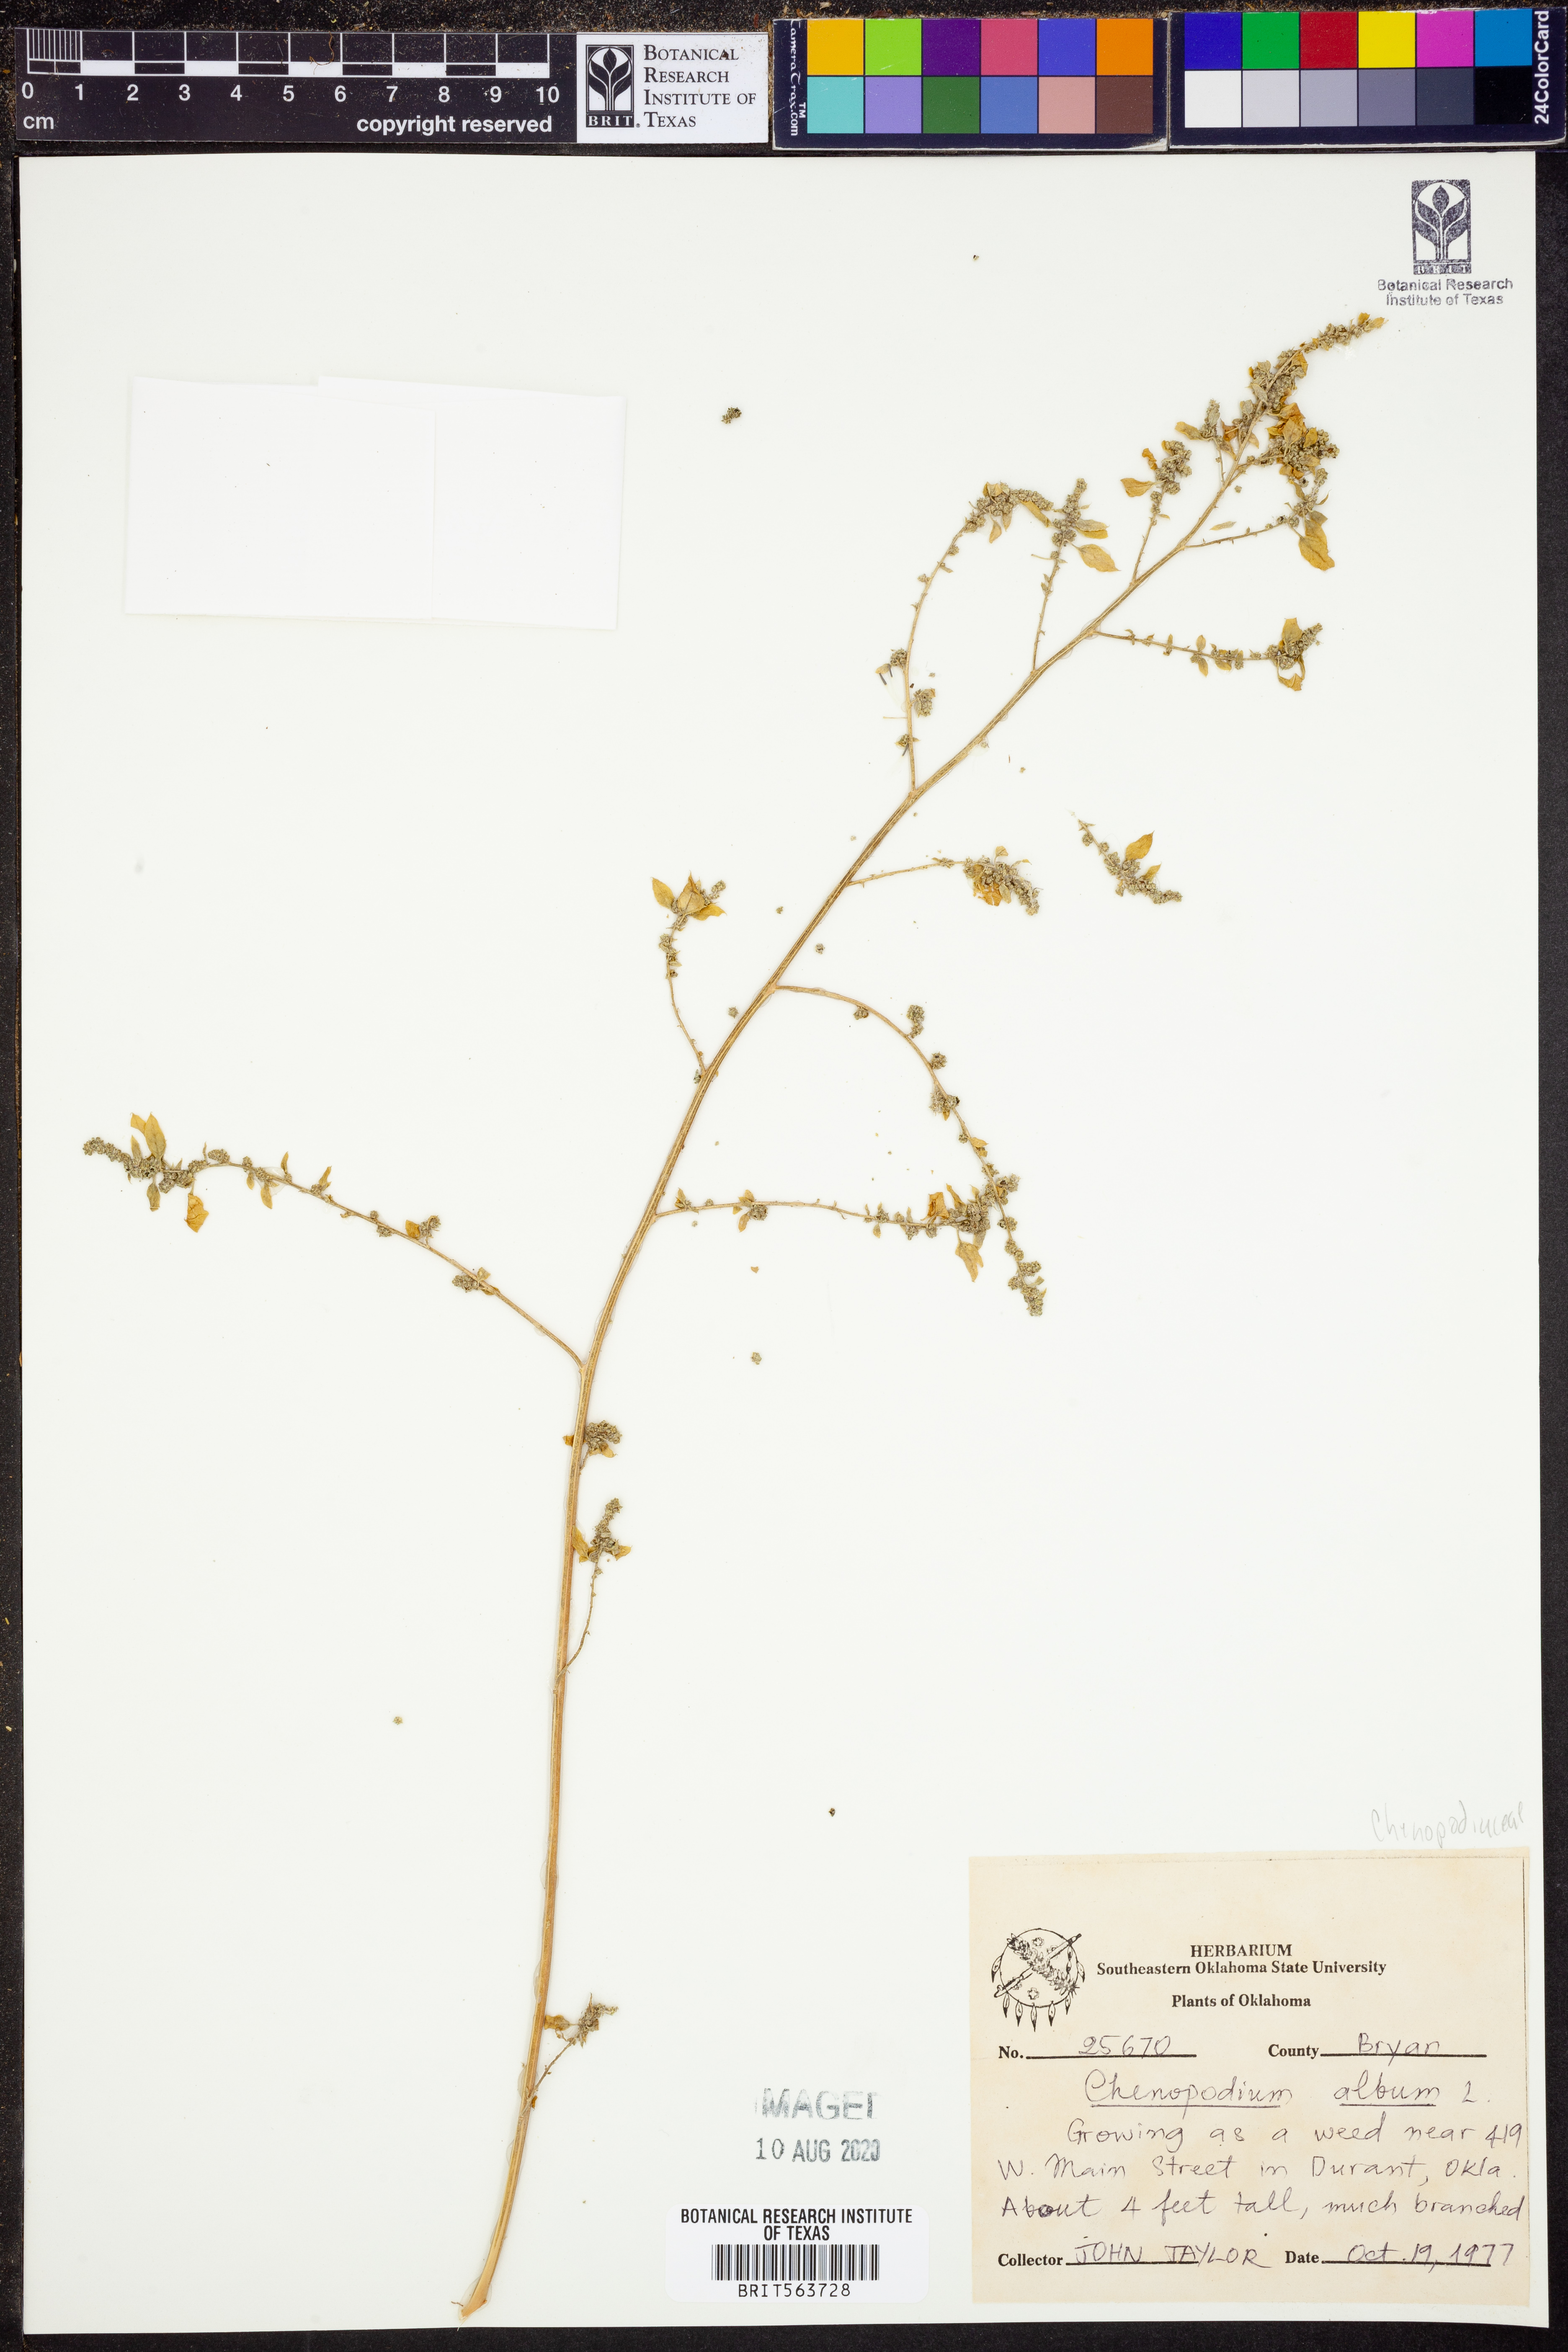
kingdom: Plantae
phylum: Tracheophyta
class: Magnoliopsida
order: Caryophyllales
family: Amaranthaceae
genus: Chenopodium
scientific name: Chenopodium album
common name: Fat-hen
